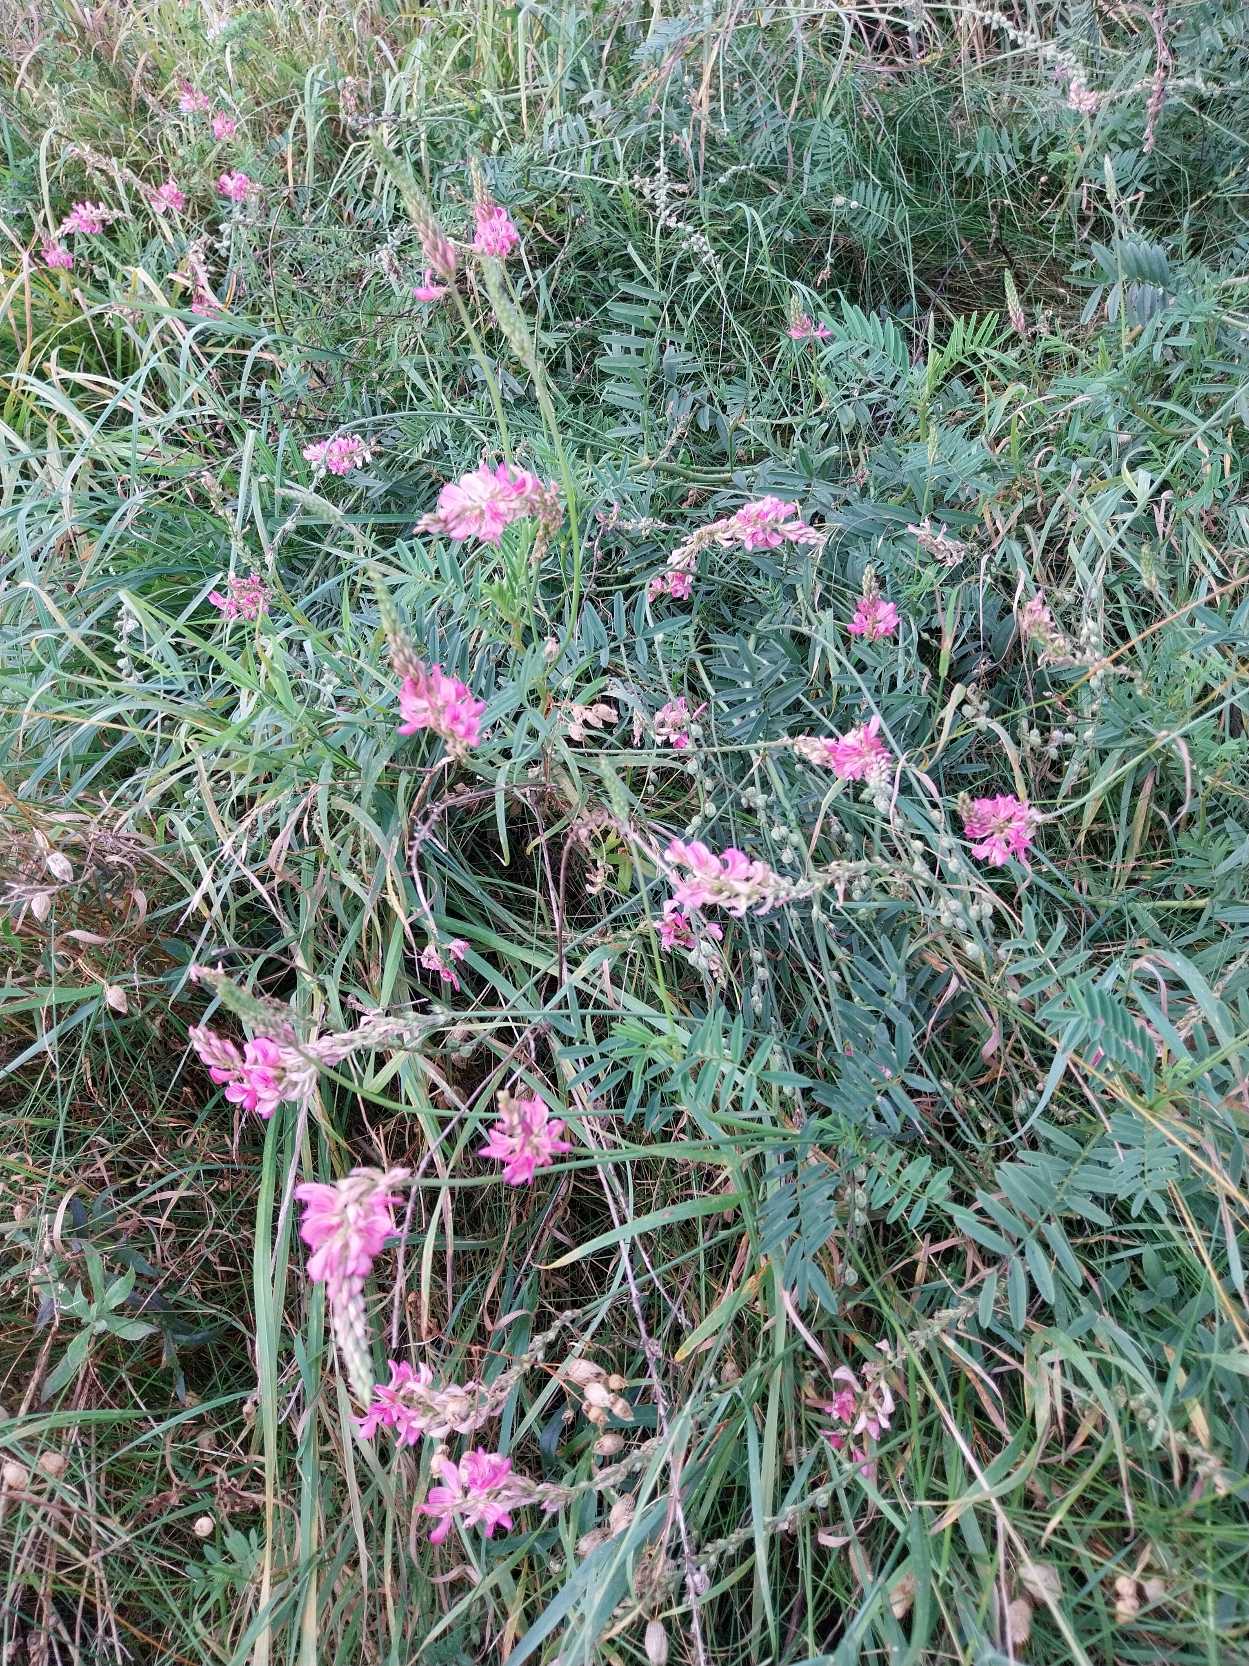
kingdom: Plantae
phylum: Tracheophyta
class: Magnoliopsida
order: Fabales
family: Fabaceae
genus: Onobrychis
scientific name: Onobrychis viciifolia
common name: Esparsette
